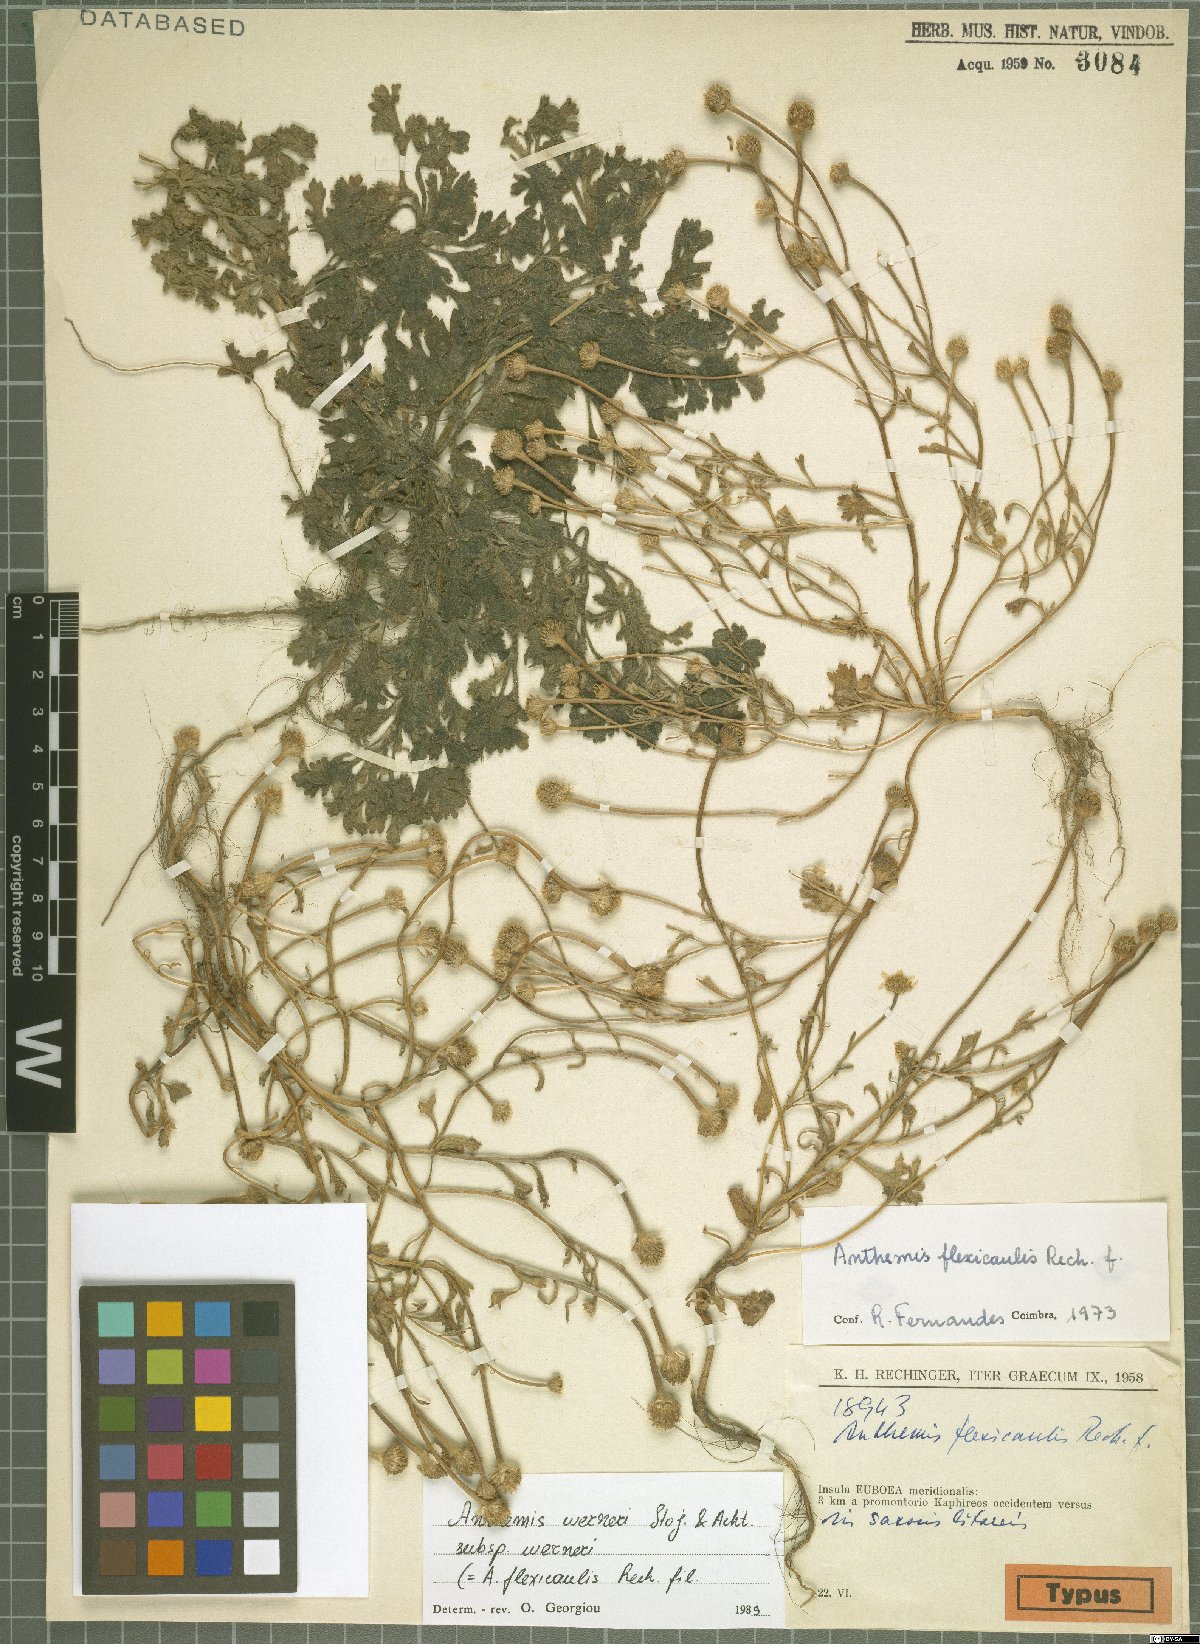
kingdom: Plantae
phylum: Tracheophyta
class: Magnoliopsida
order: Asterales
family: Asteraceae
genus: Anthemis
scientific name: Anthemis werneri
